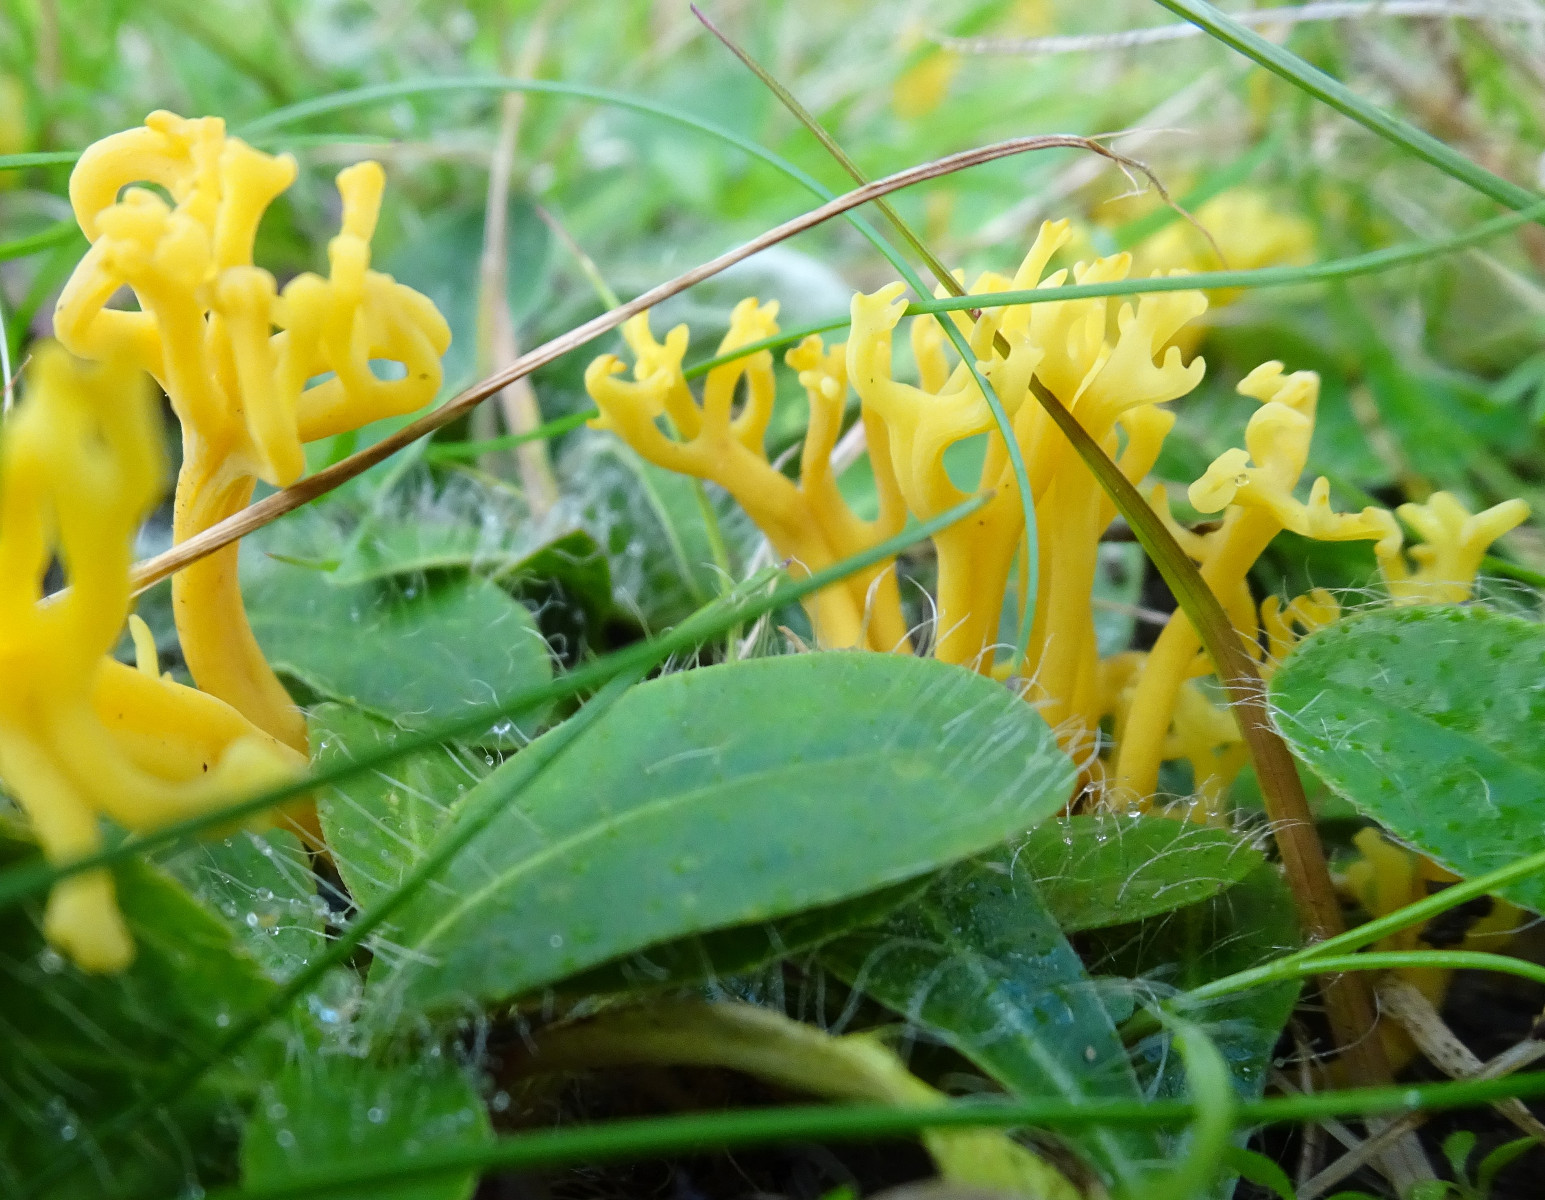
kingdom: Fungi
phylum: Basidiomycota
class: Agaricomycetes
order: Agaricales
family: Clavariaceae
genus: Clavulinopsis
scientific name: Clavulinopsis corniculata
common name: eng-køllesvamp
